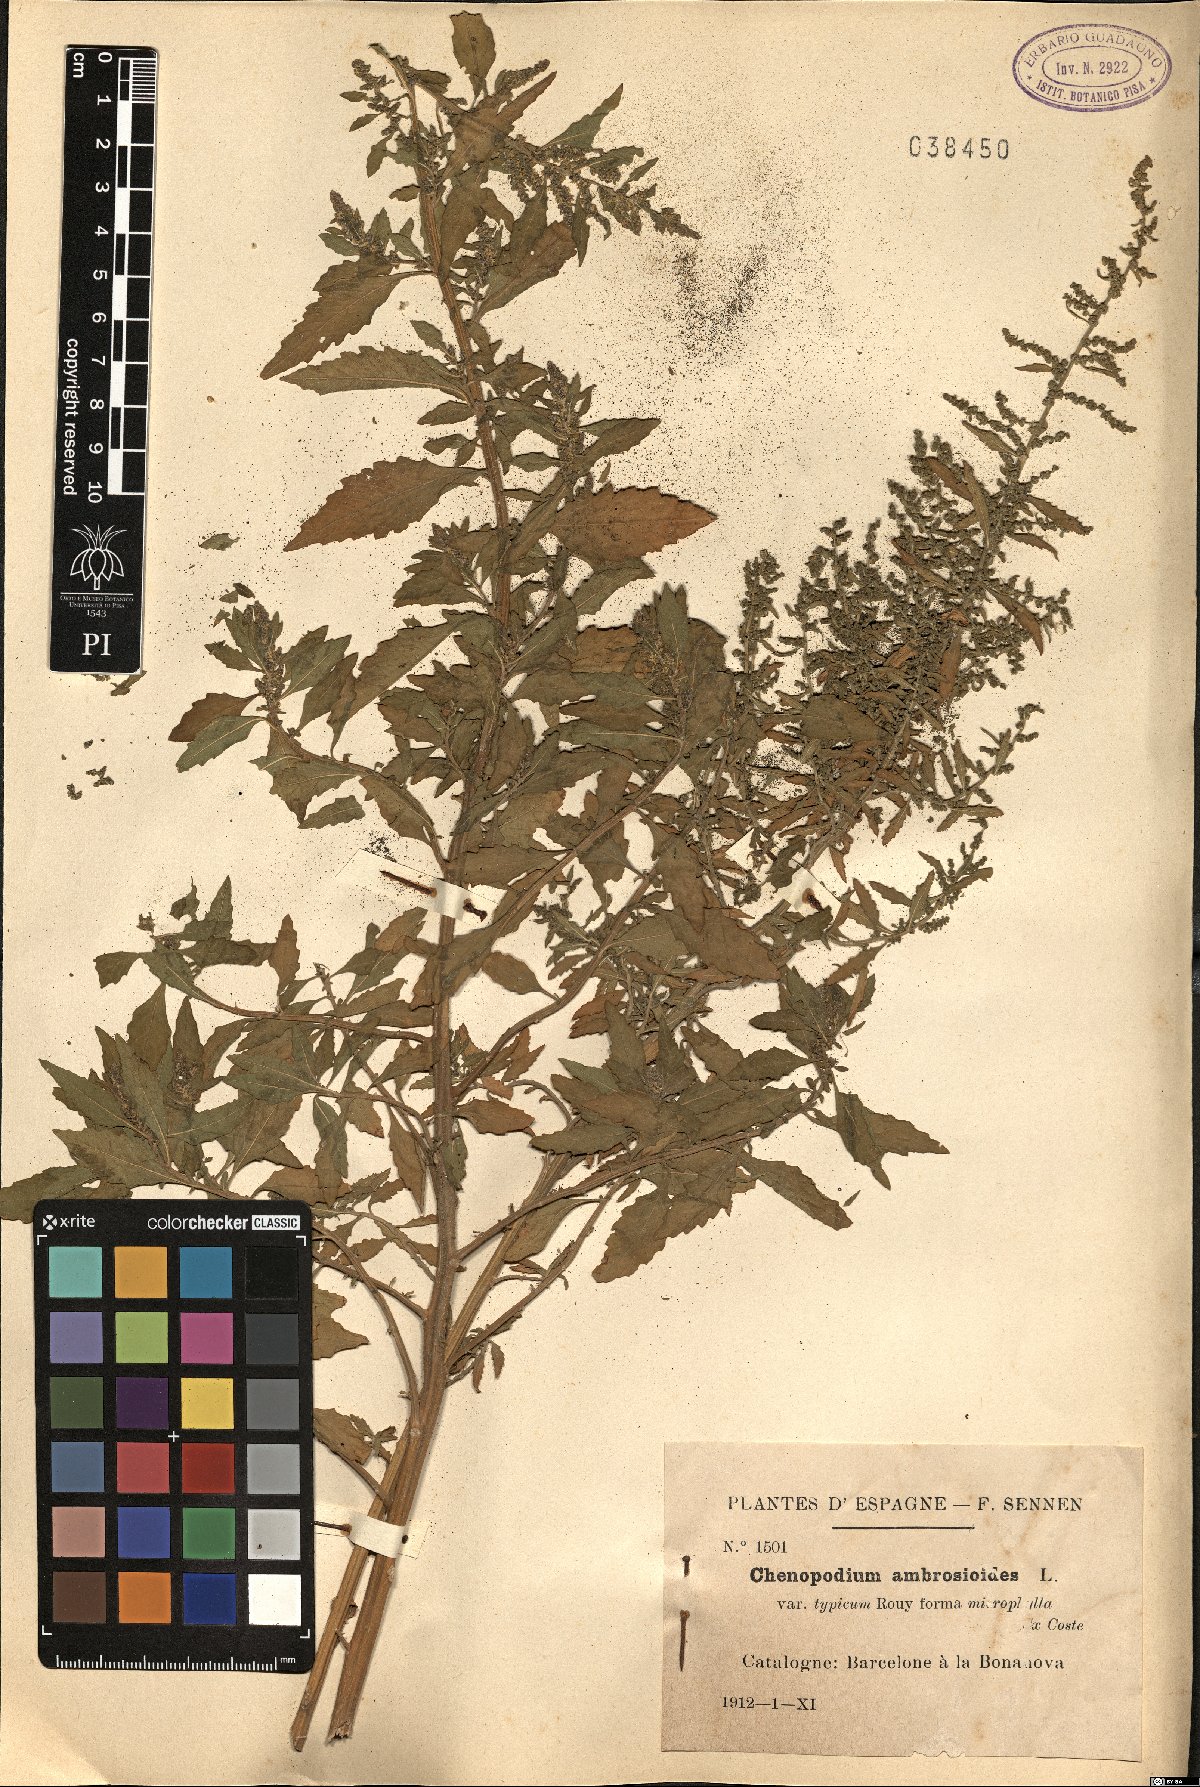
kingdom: Plantae
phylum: Tracheophyta
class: Magnoliopsida
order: Caryophyllales
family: Amaranthaceae
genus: Dysphania
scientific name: Dysphania ambrosioides
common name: Wormseed
